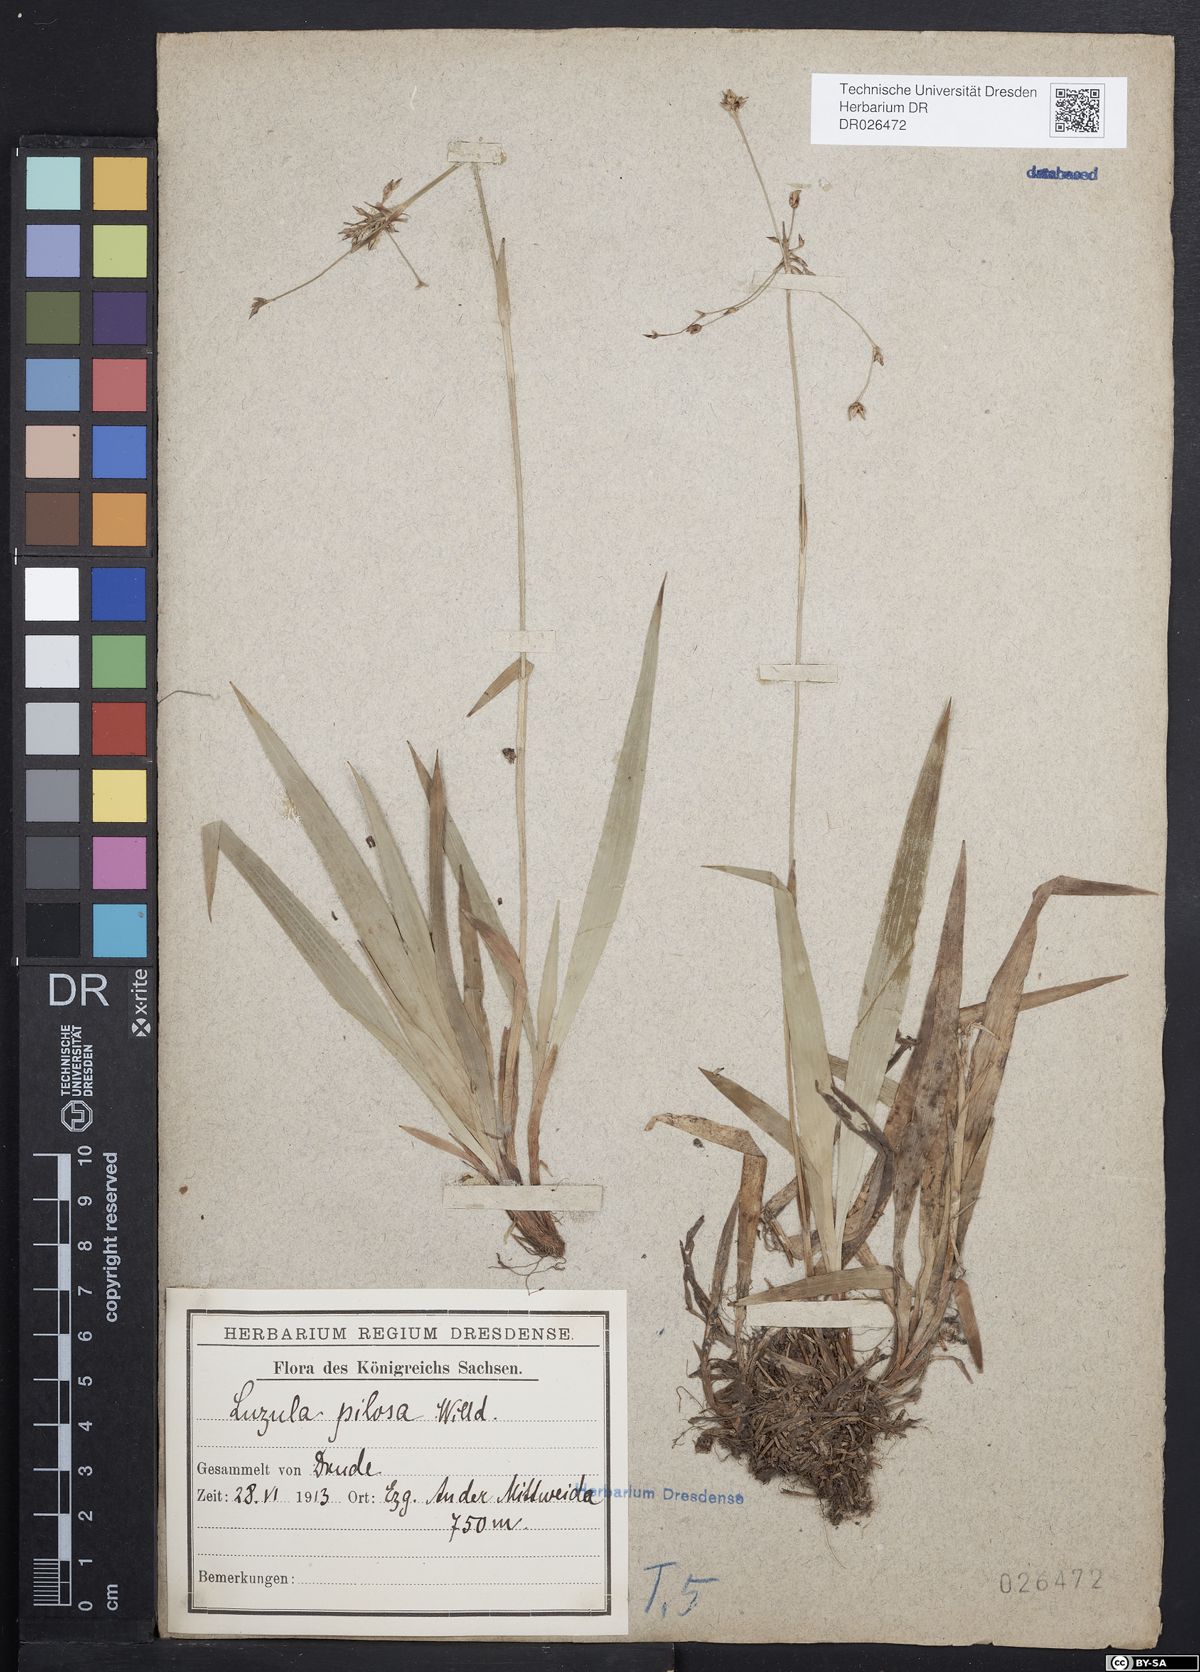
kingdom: Plantae
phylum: Tracheophyta
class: Liliopsida
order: Poales
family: Juncaceae
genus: Luzula
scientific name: Luzula pilosa
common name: Hairy wood-rush
